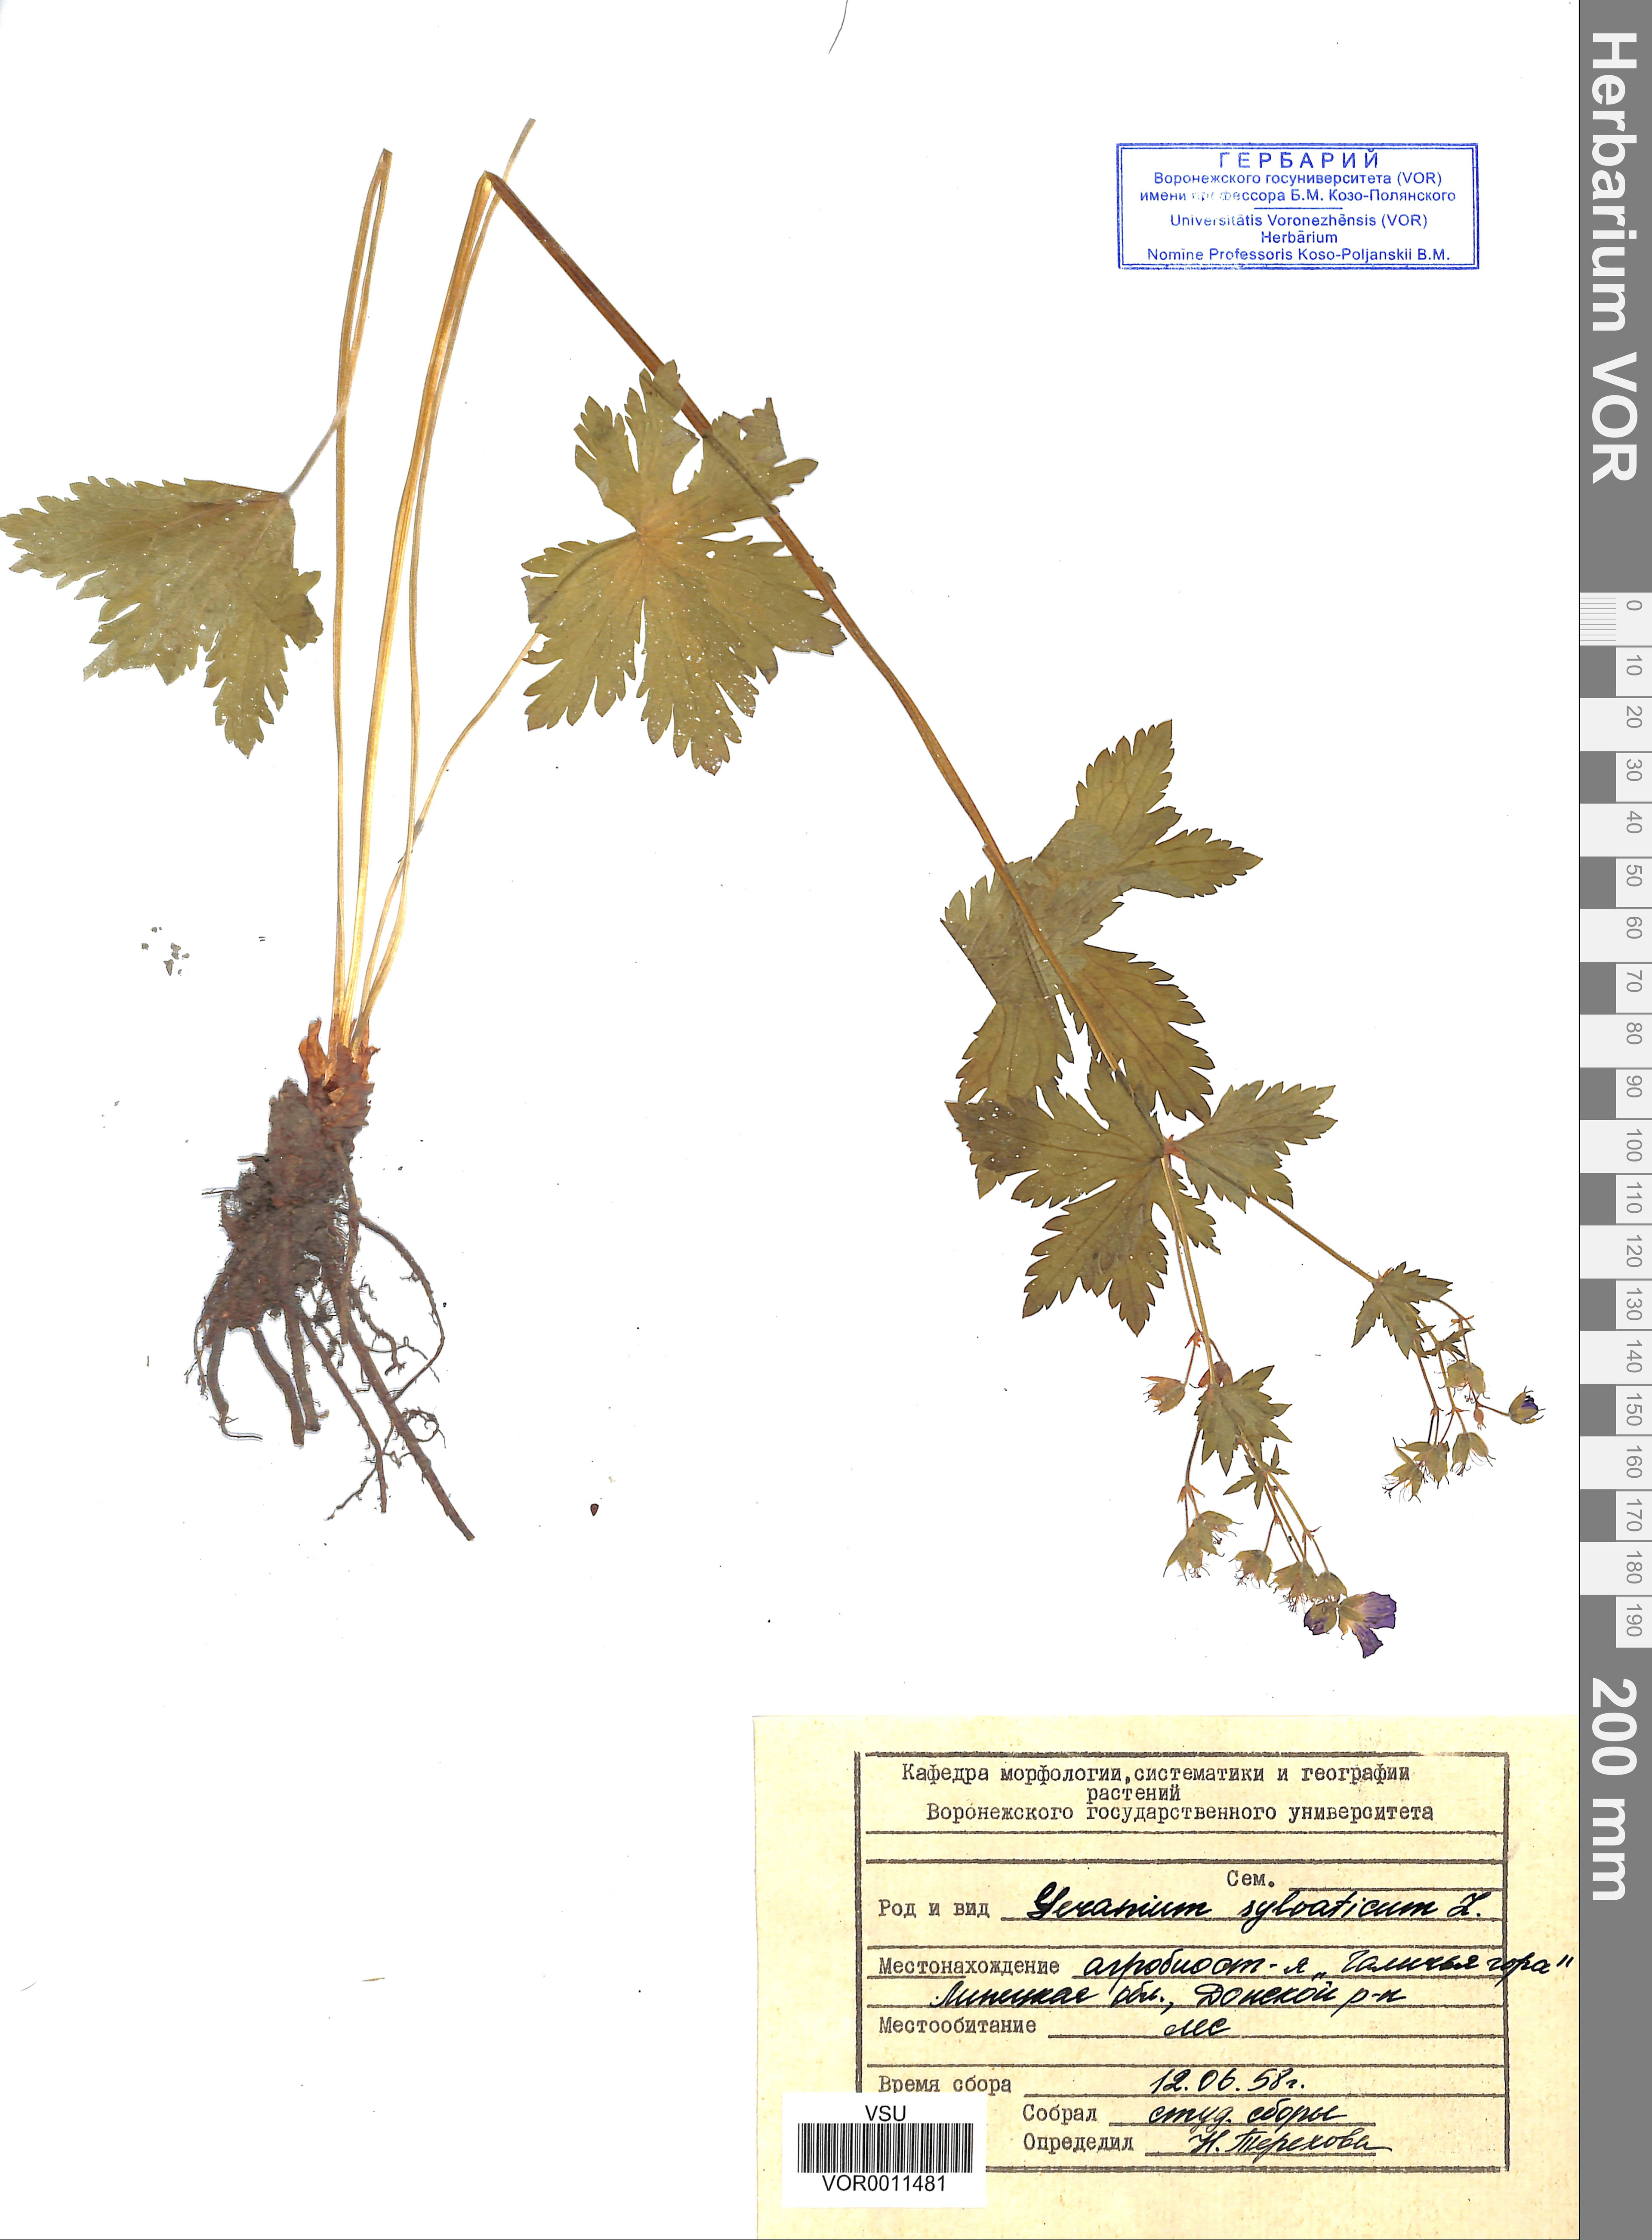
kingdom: Plantae
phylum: Tracheophyta
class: Magnoliopsida
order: Geraniales
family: Geraniaceae
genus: Geranium
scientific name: Geranium sibiricum
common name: Siberian crane's-bill
